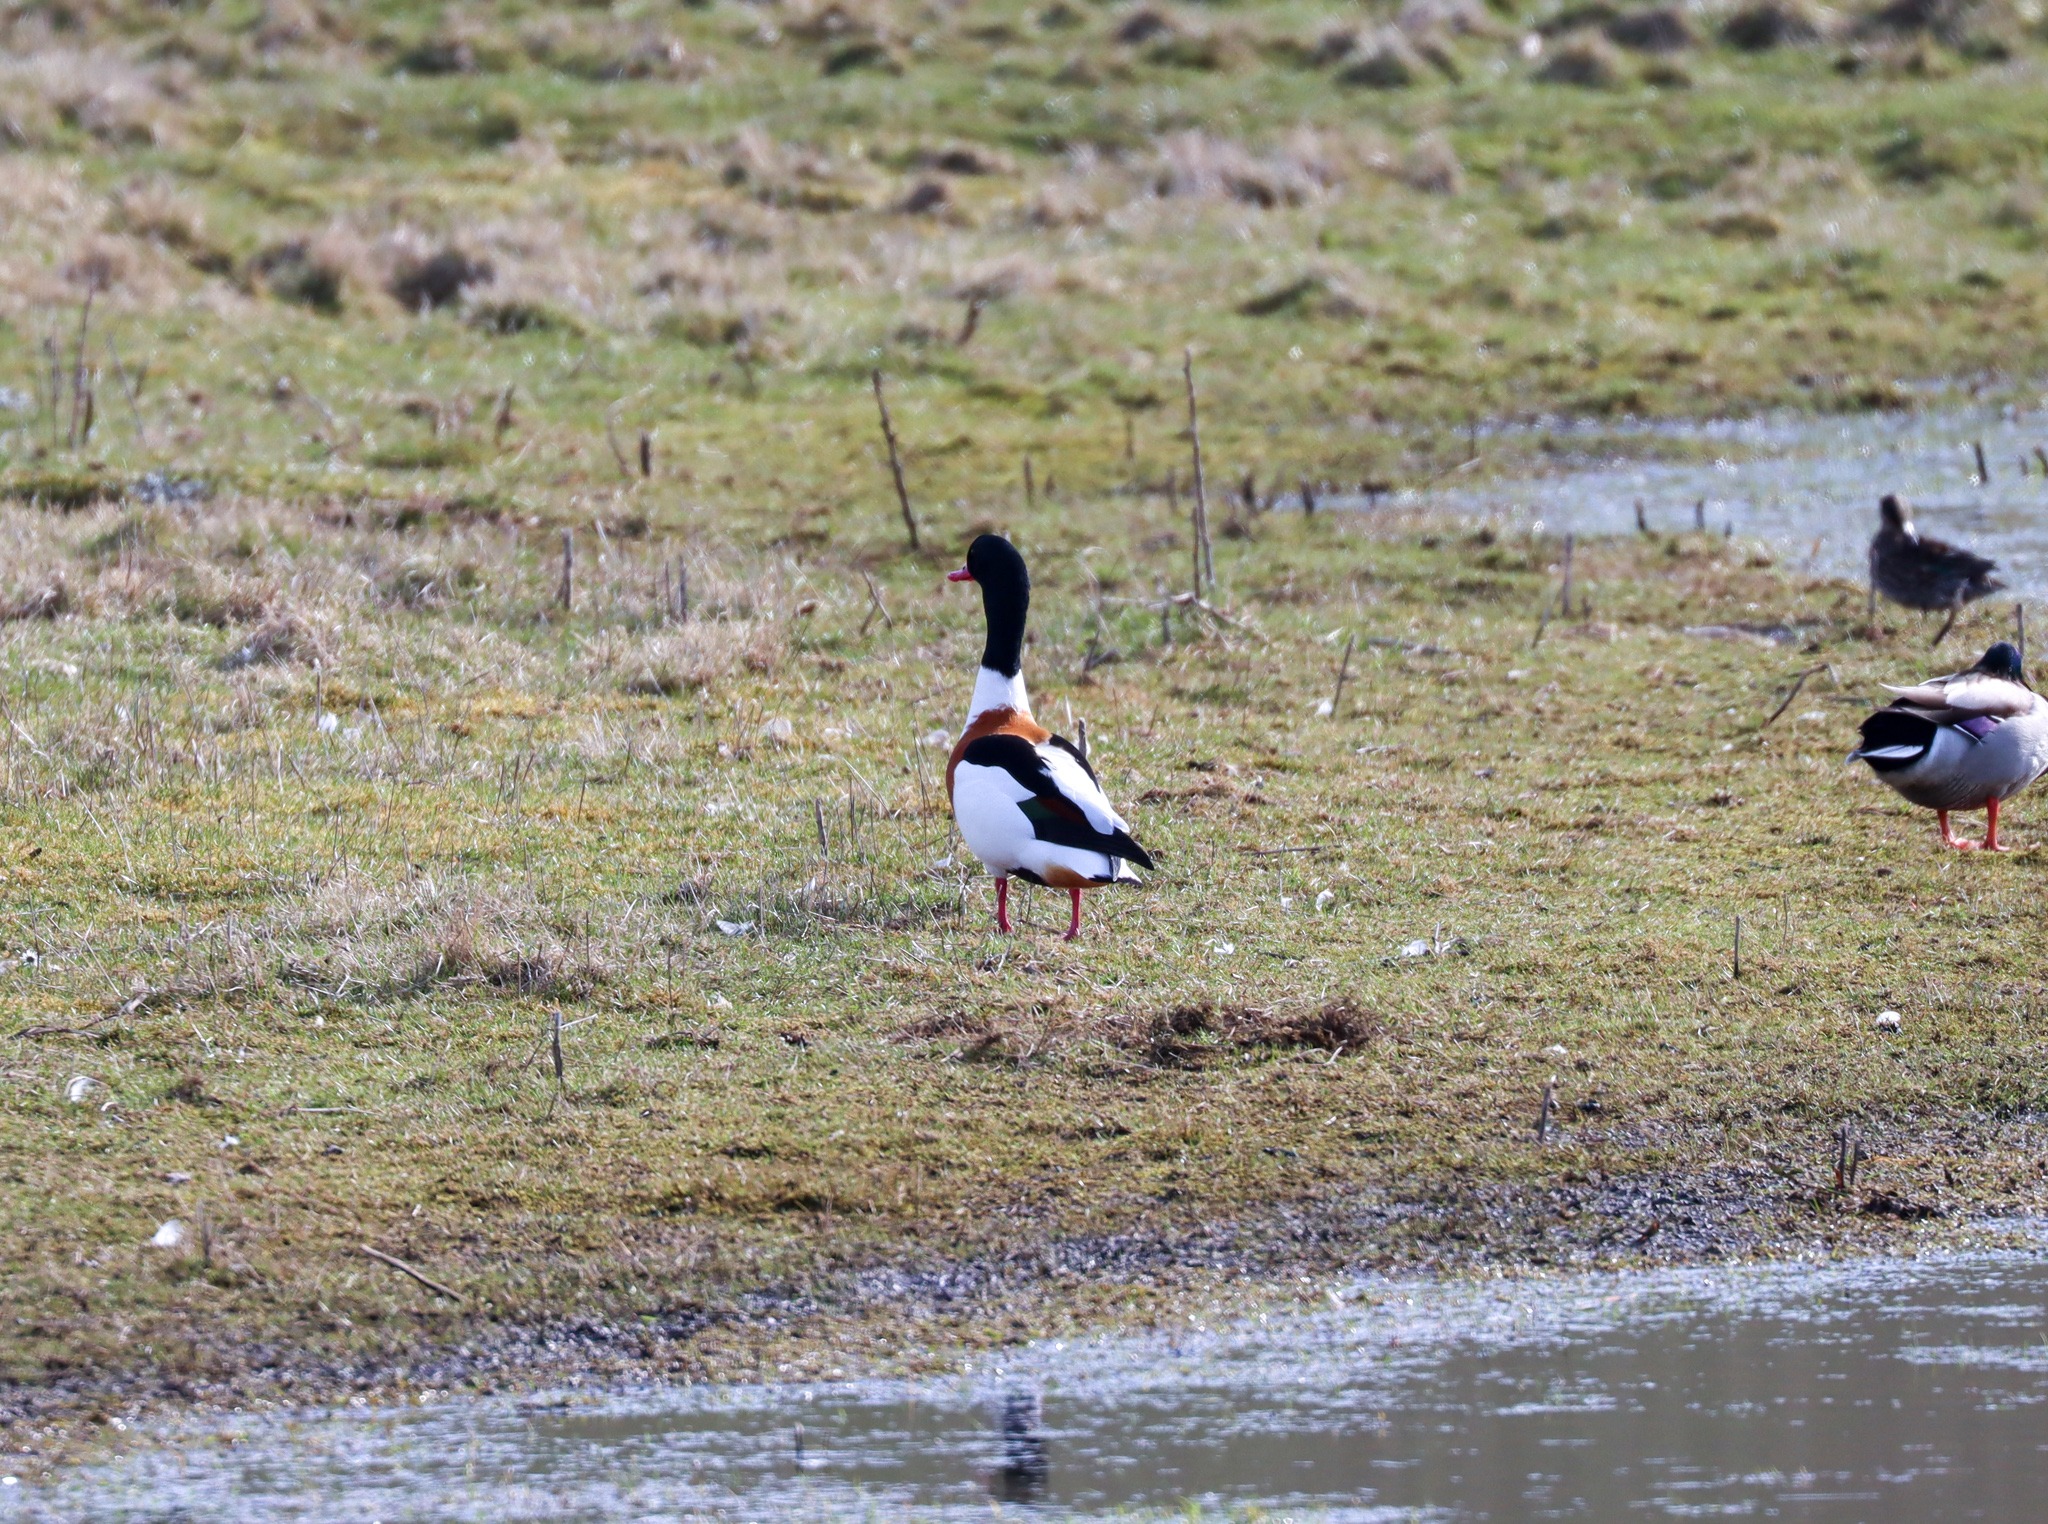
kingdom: Animalia
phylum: Chordata
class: Aves
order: Anseriformes
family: Anatidae
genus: Tadorna
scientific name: Tadorna tadorna
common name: Gravand
